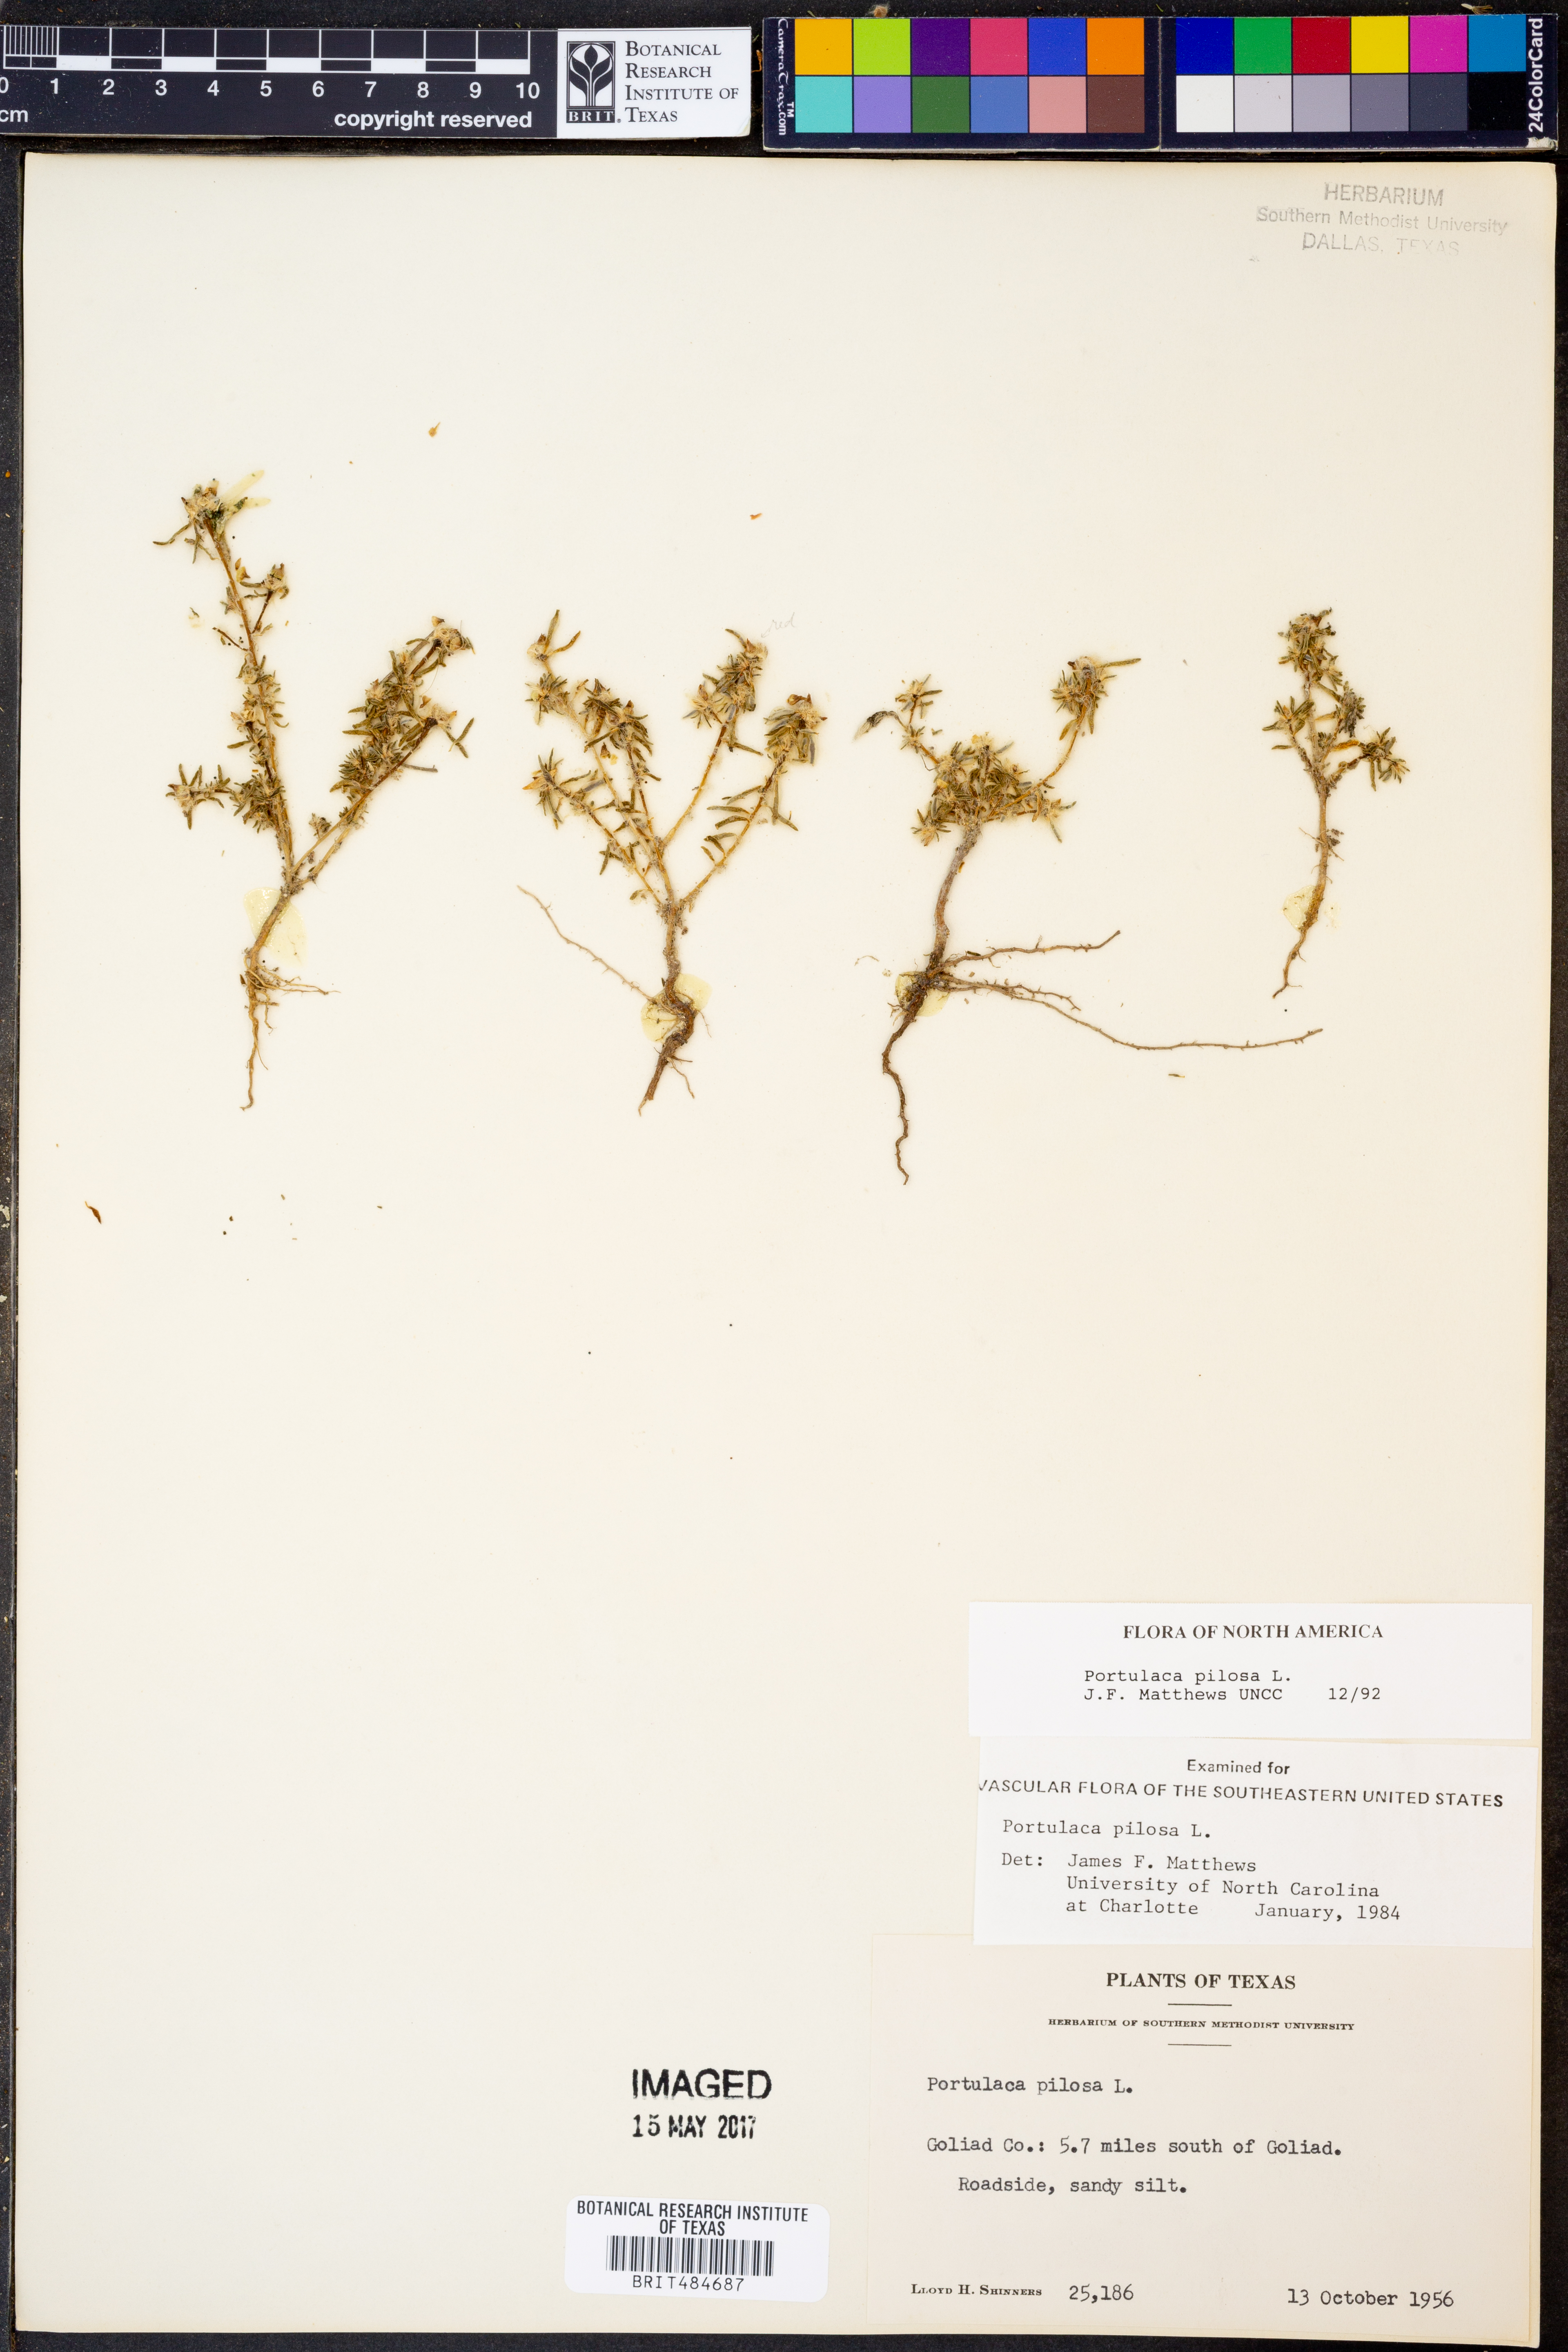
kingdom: Plantae
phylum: Tracheophyta
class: Magnoliopsida
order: Caryophyllales
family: Portulacaceae
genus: Portulaca
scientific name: Portulaca pilosa
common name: Kiss me quick
